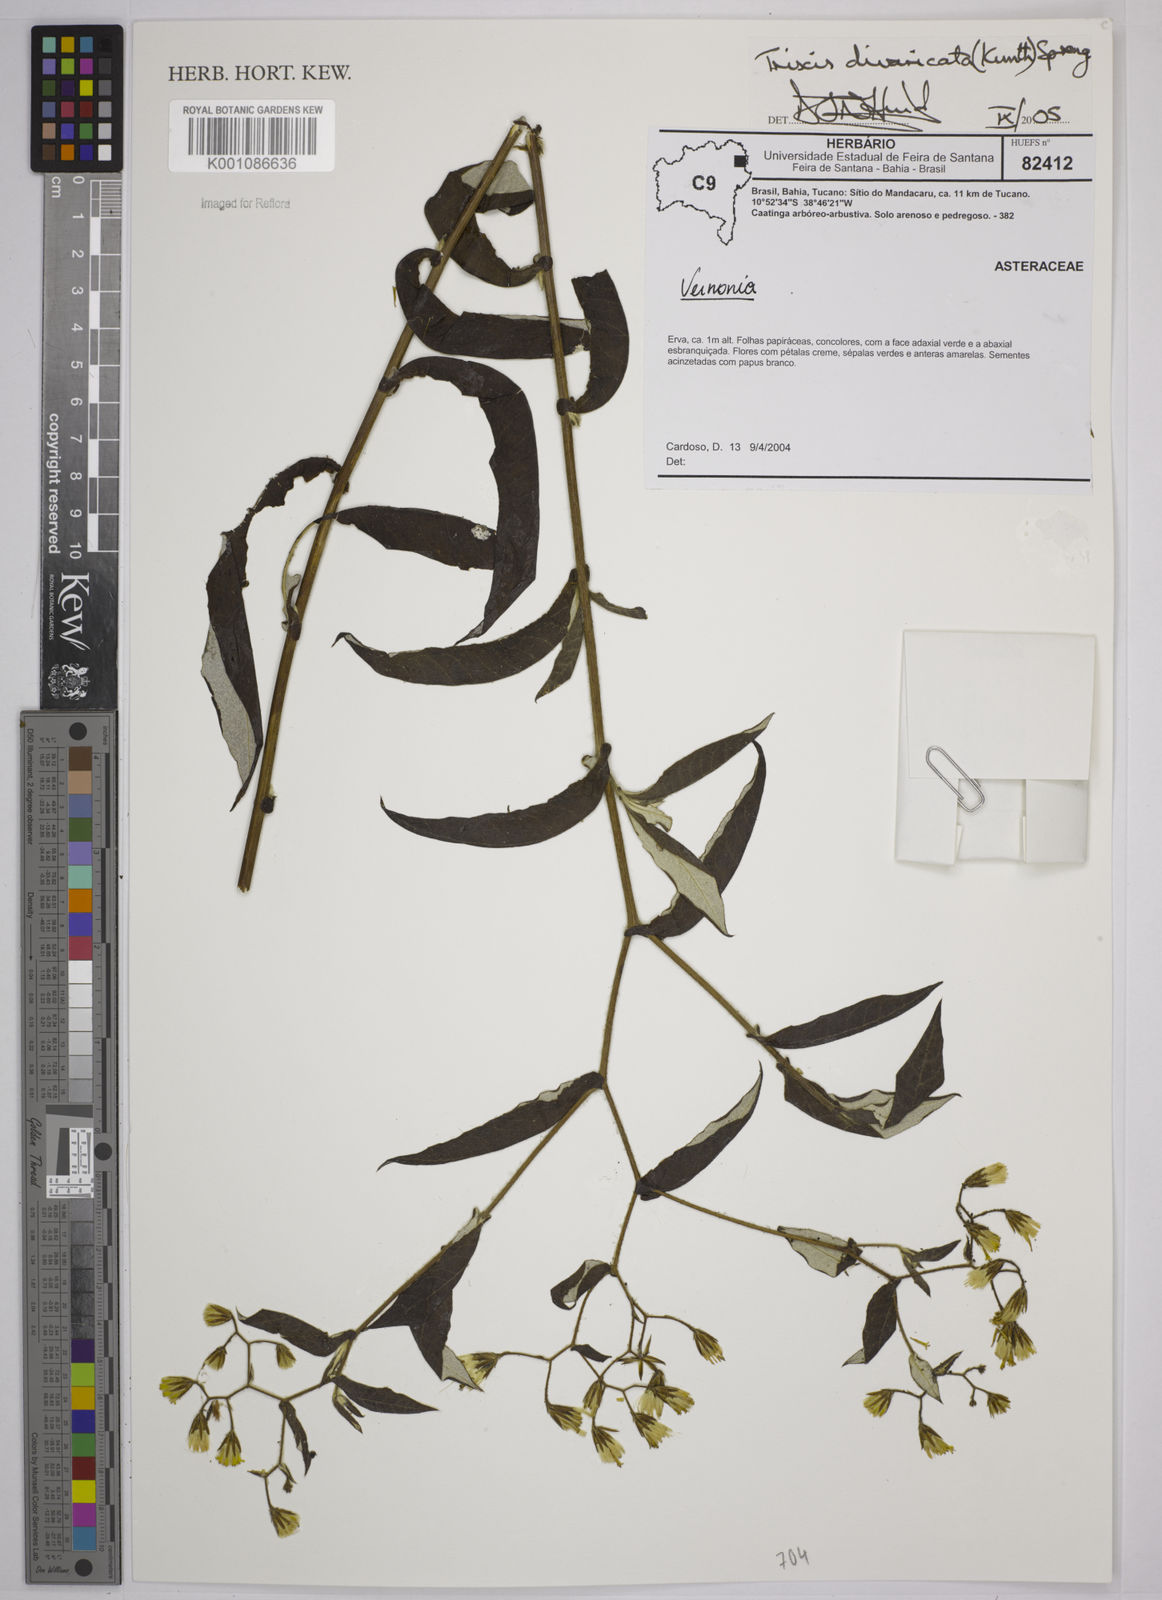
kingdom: Plantae
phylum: Tracheophyta
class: Magnoliopsida
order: Asterales
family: Asteraceae
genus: Trixis
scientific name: Trixis divaricata
